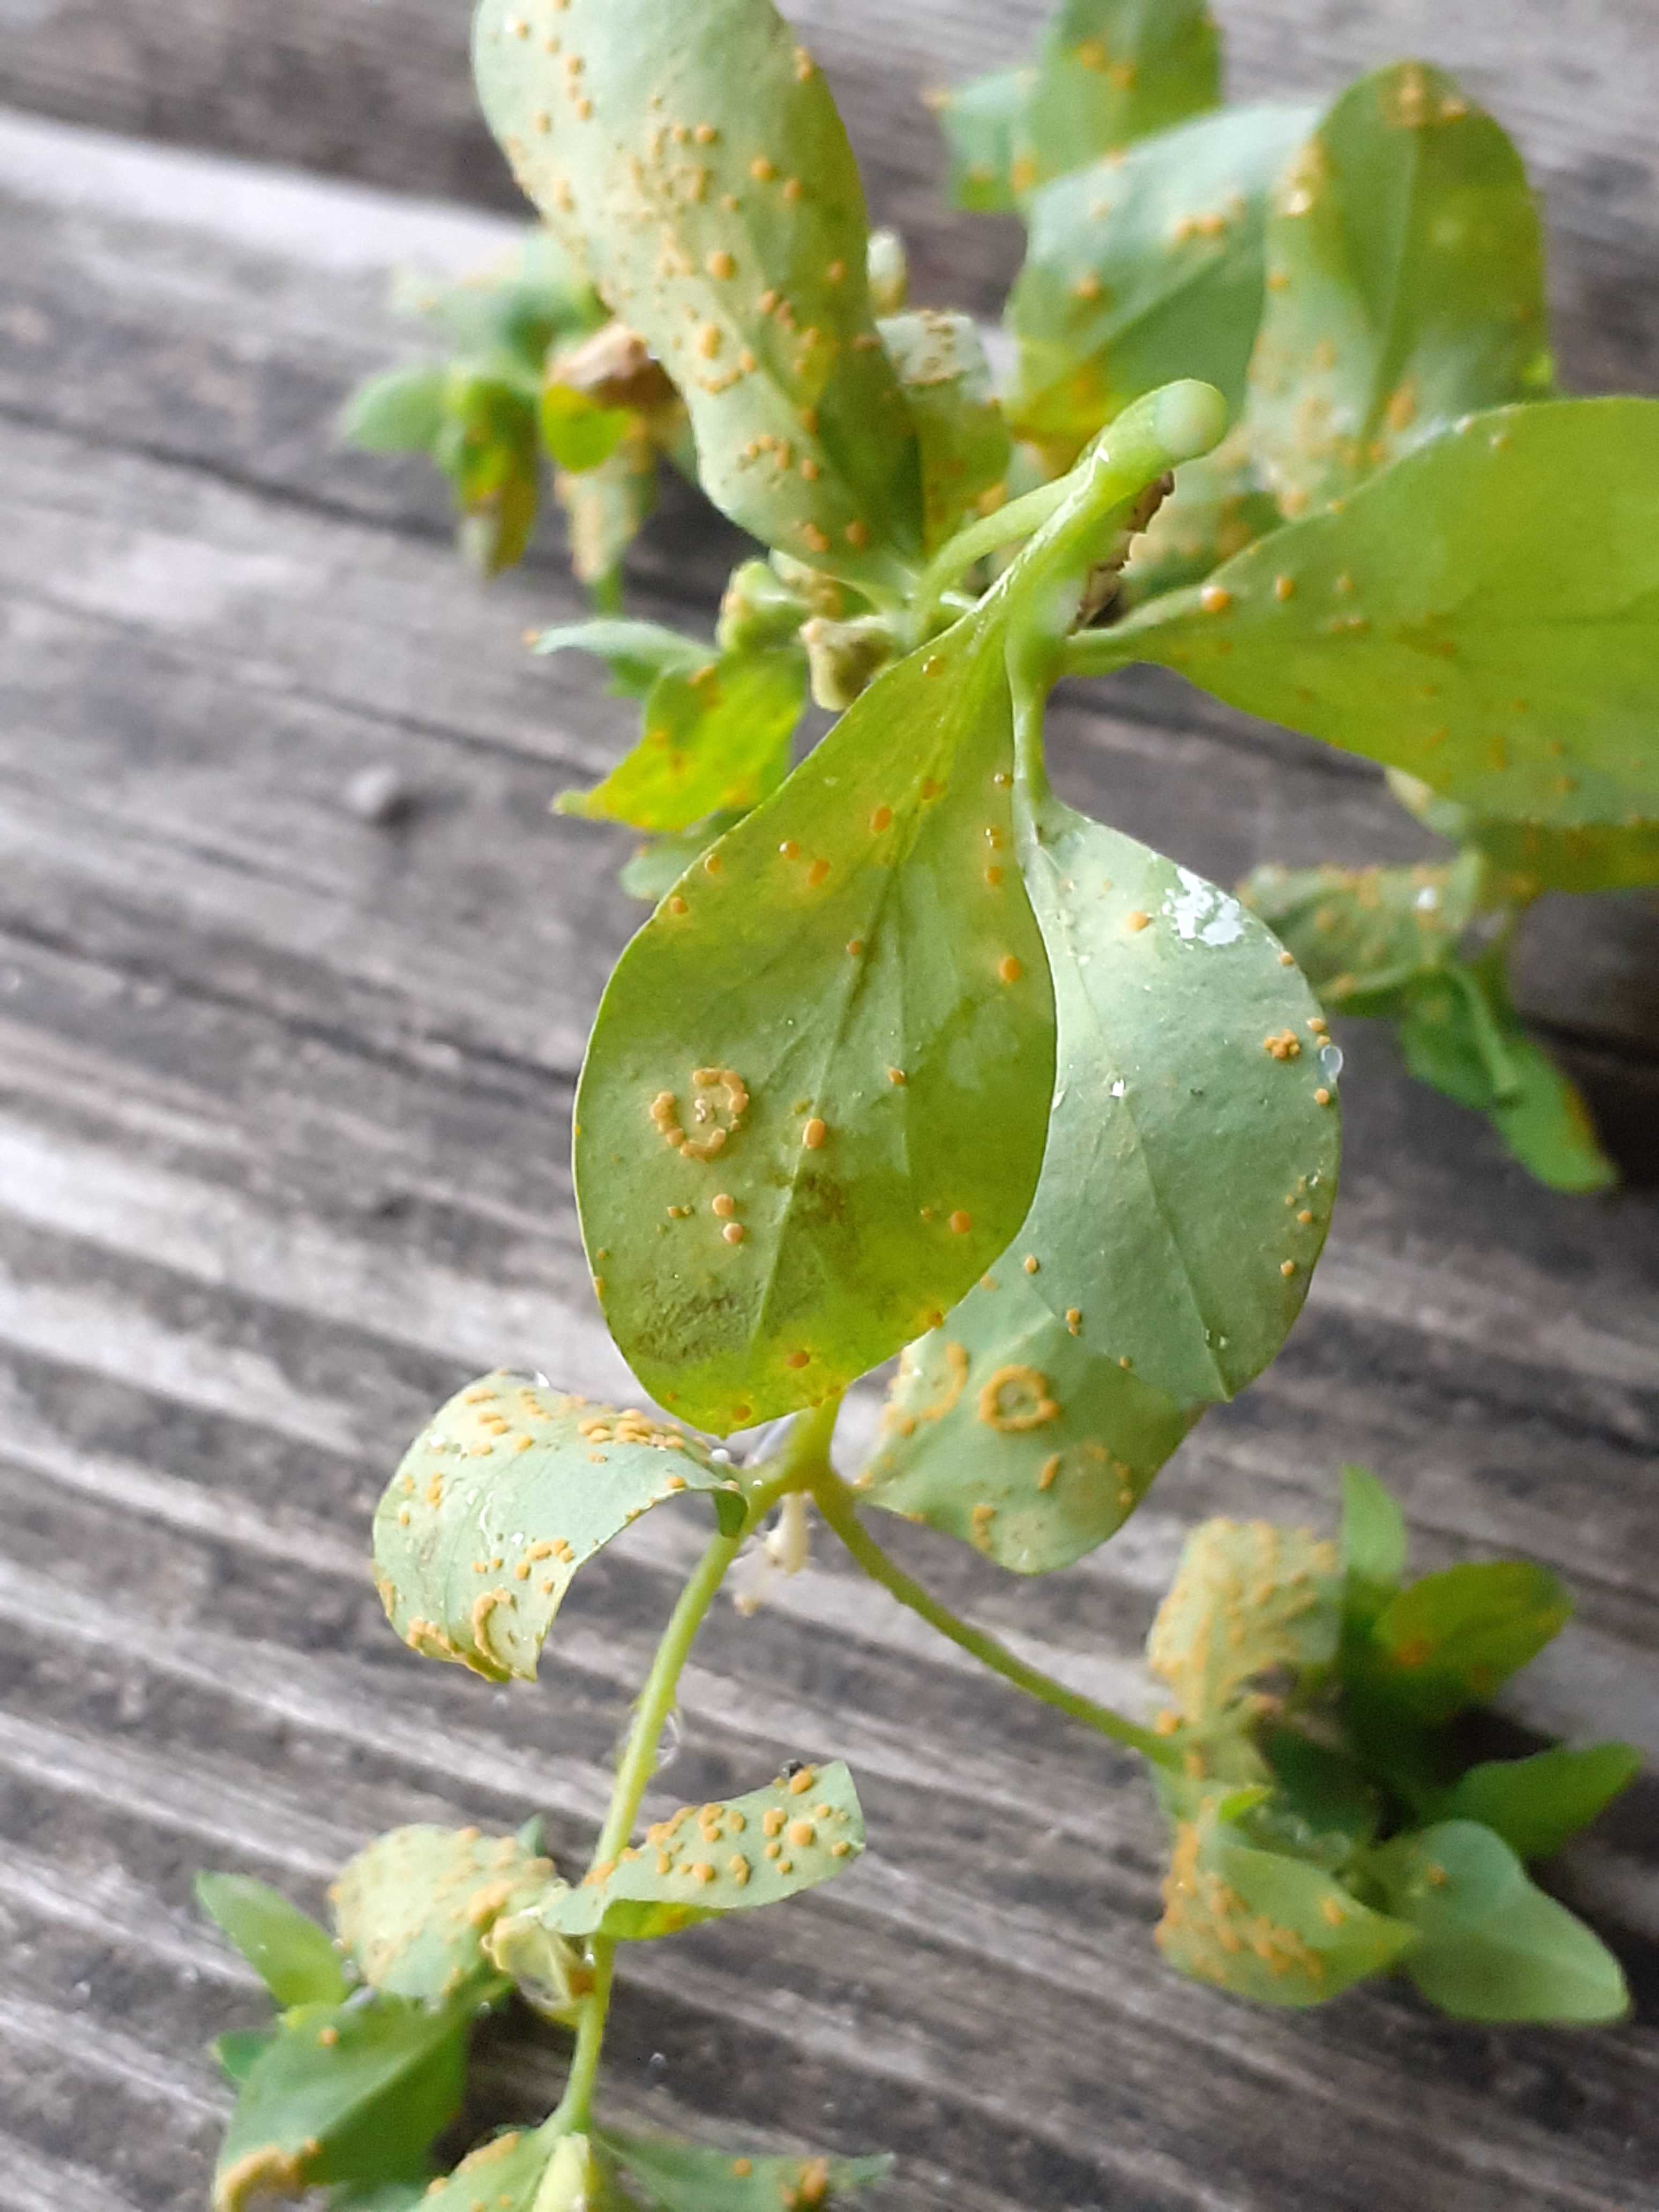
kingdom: Fungi
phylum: Basidiomycota
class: Pucciniomycetes
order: Pucciniales
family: Melampsoraceae
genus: Melampsora
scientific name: Melampsora euphorbiae
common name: vortemælk-skorperust
